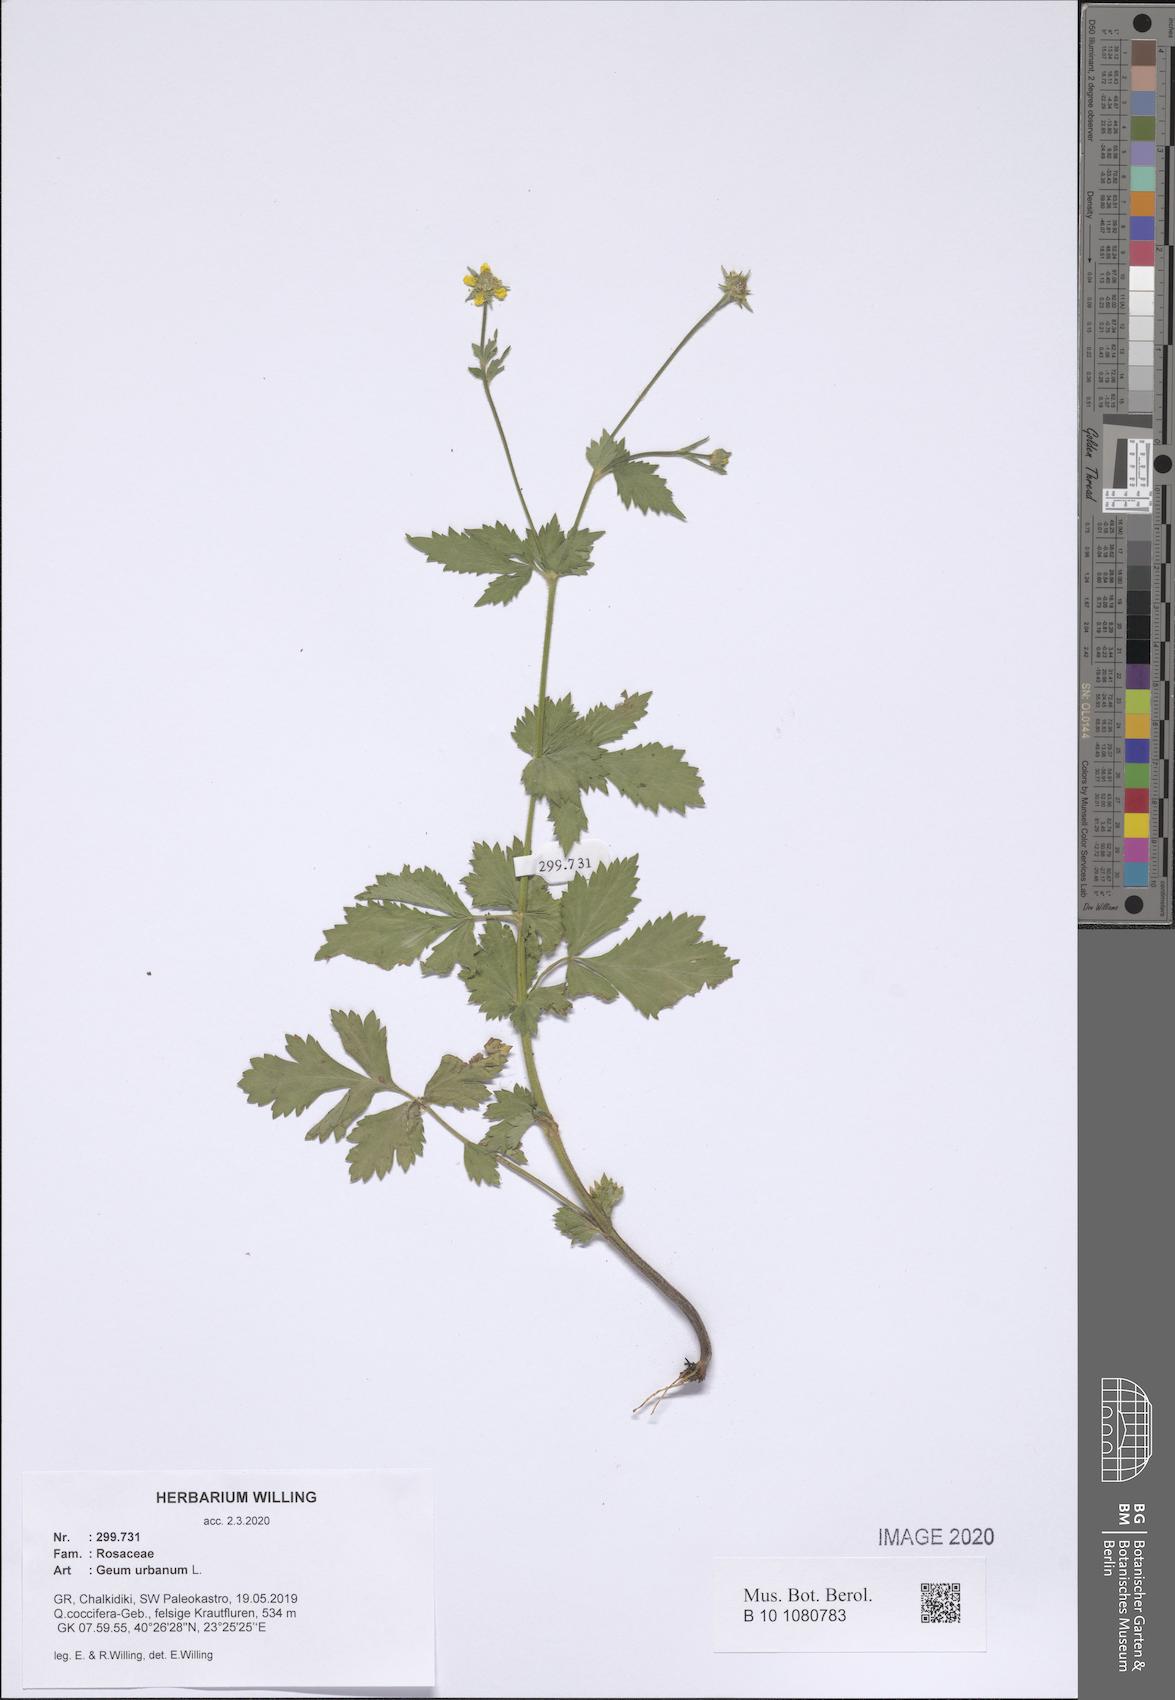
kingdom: Plantae
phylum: Tracheophyta
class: Magnoliopsida
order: Rosales
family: Rosaceae
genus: Geum
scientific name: Geum urbanum
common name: Wood avens
